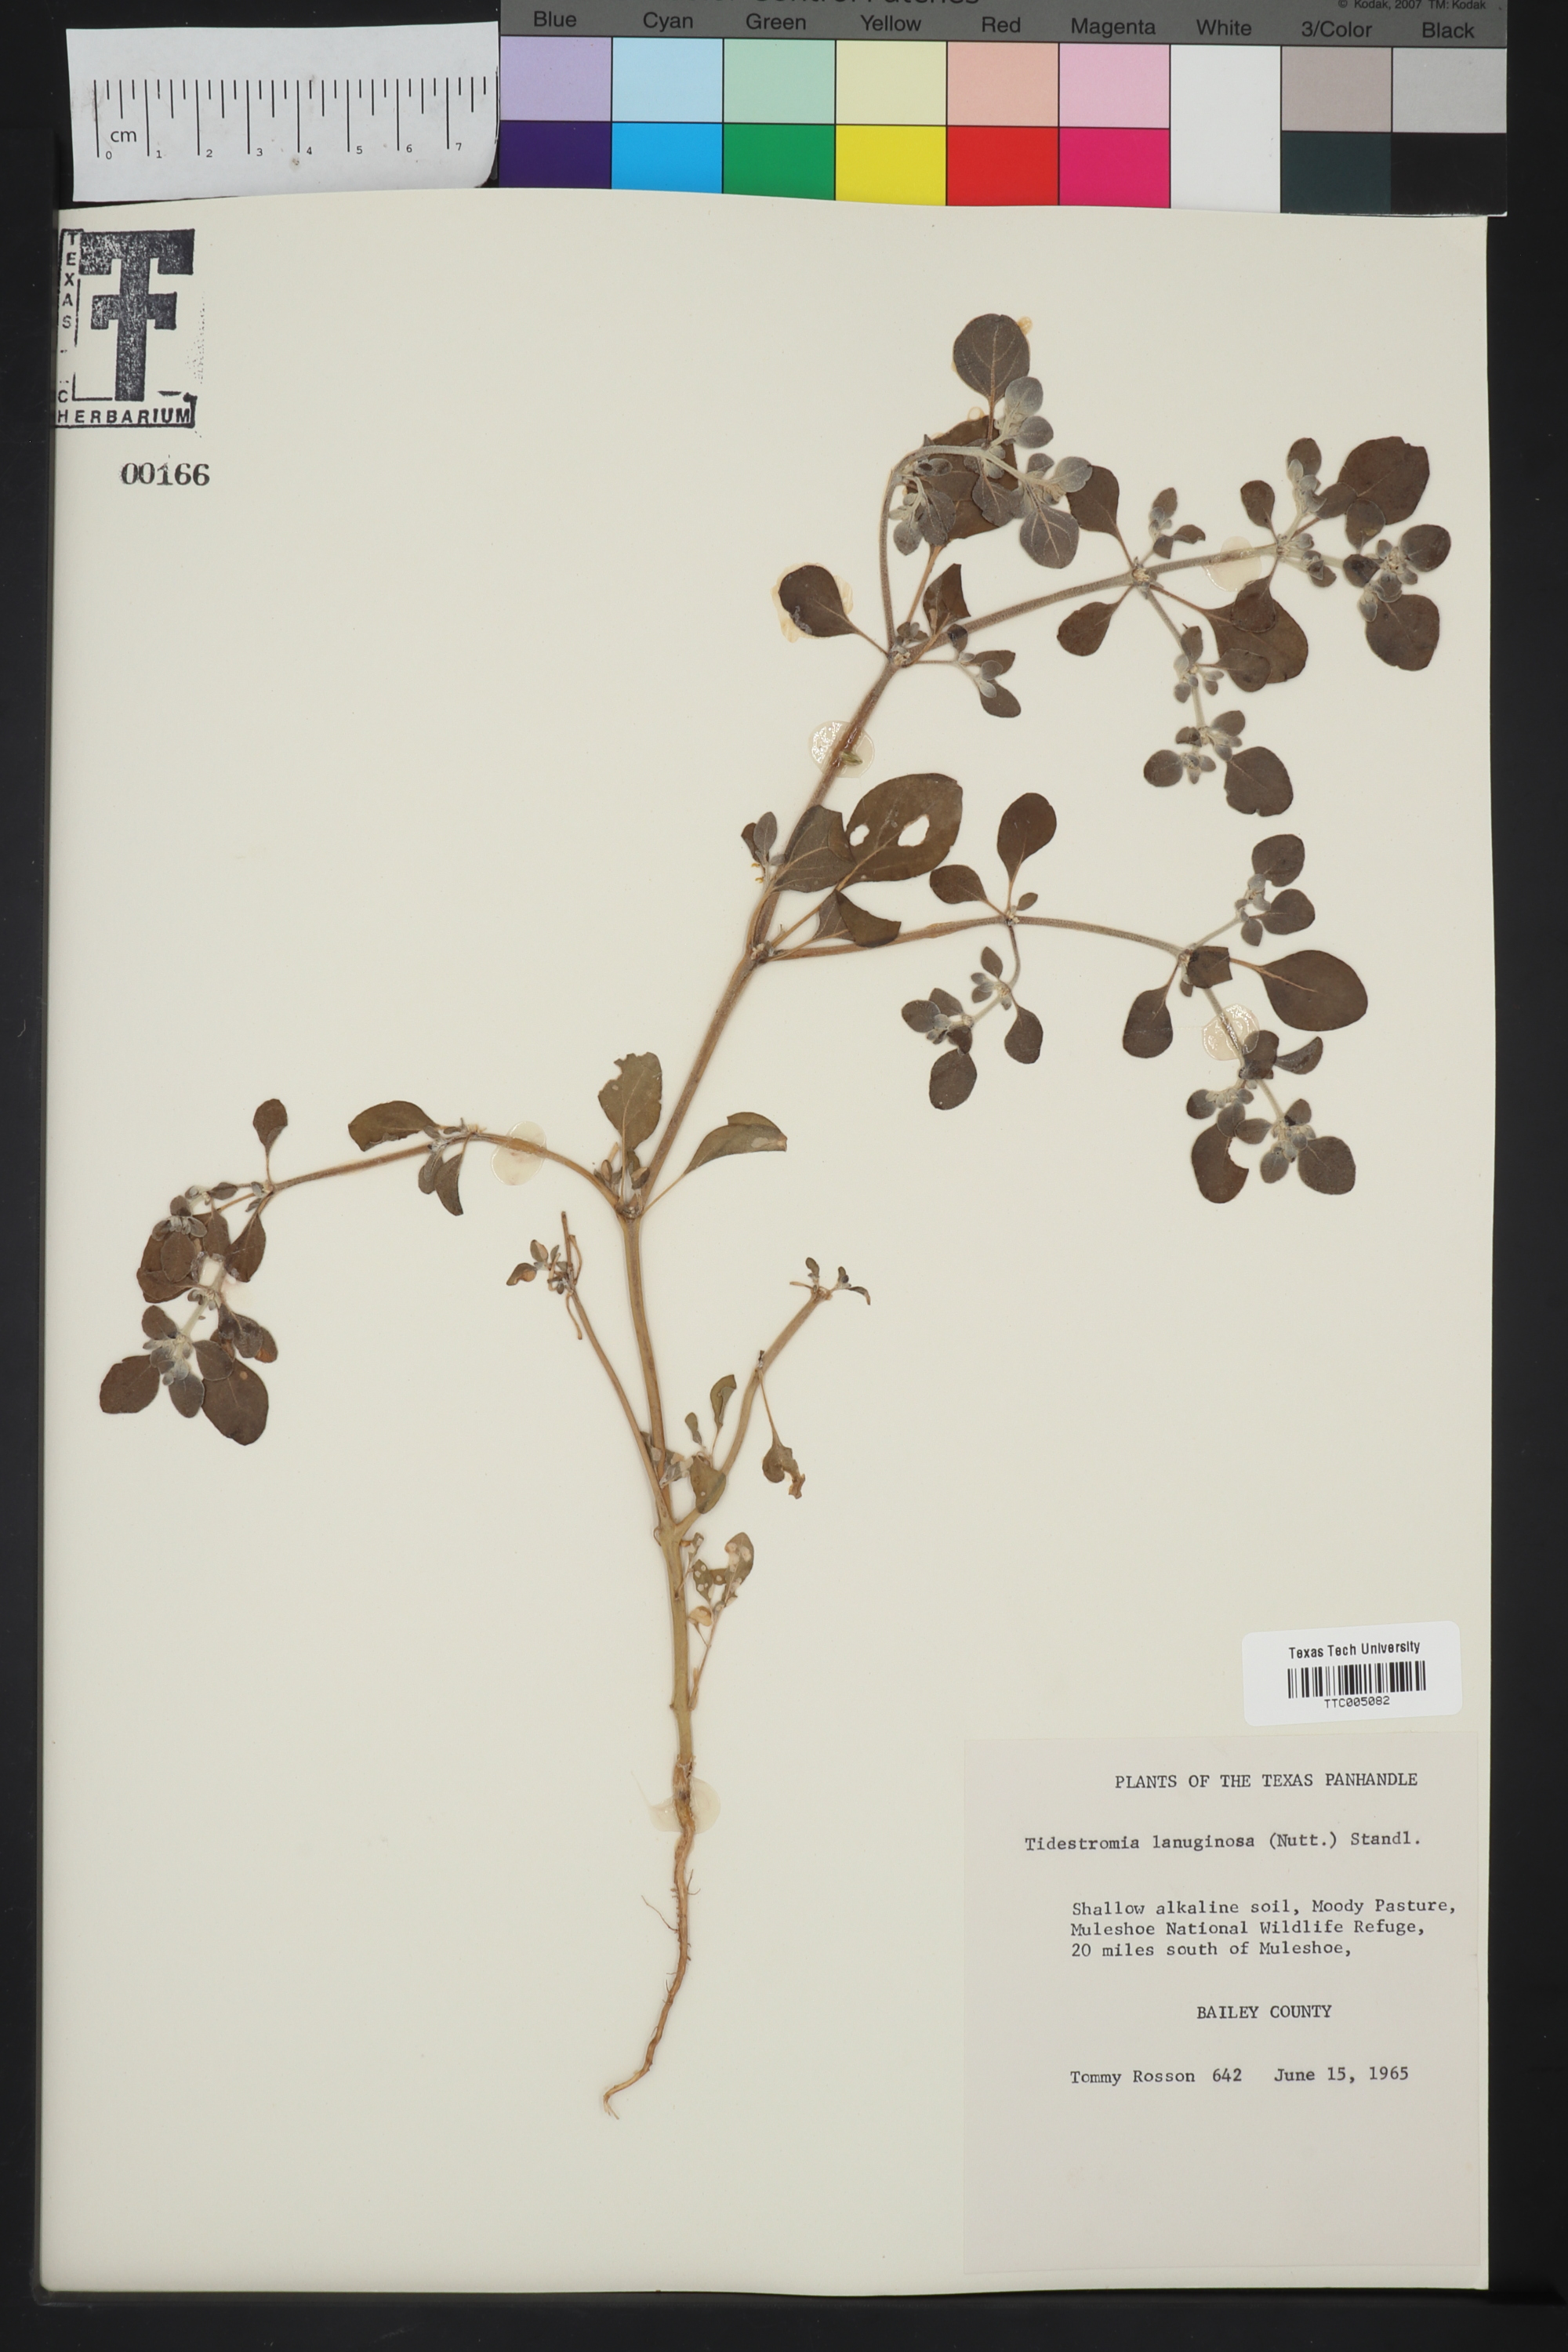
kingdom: Plantae
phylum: Tracheophyta
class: Magnoliopsida
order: Caryophyllales
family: Amaranthaceae
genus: Tidestromia
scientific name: Tidestromia lanuginosa
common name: Woolly tidestromia
